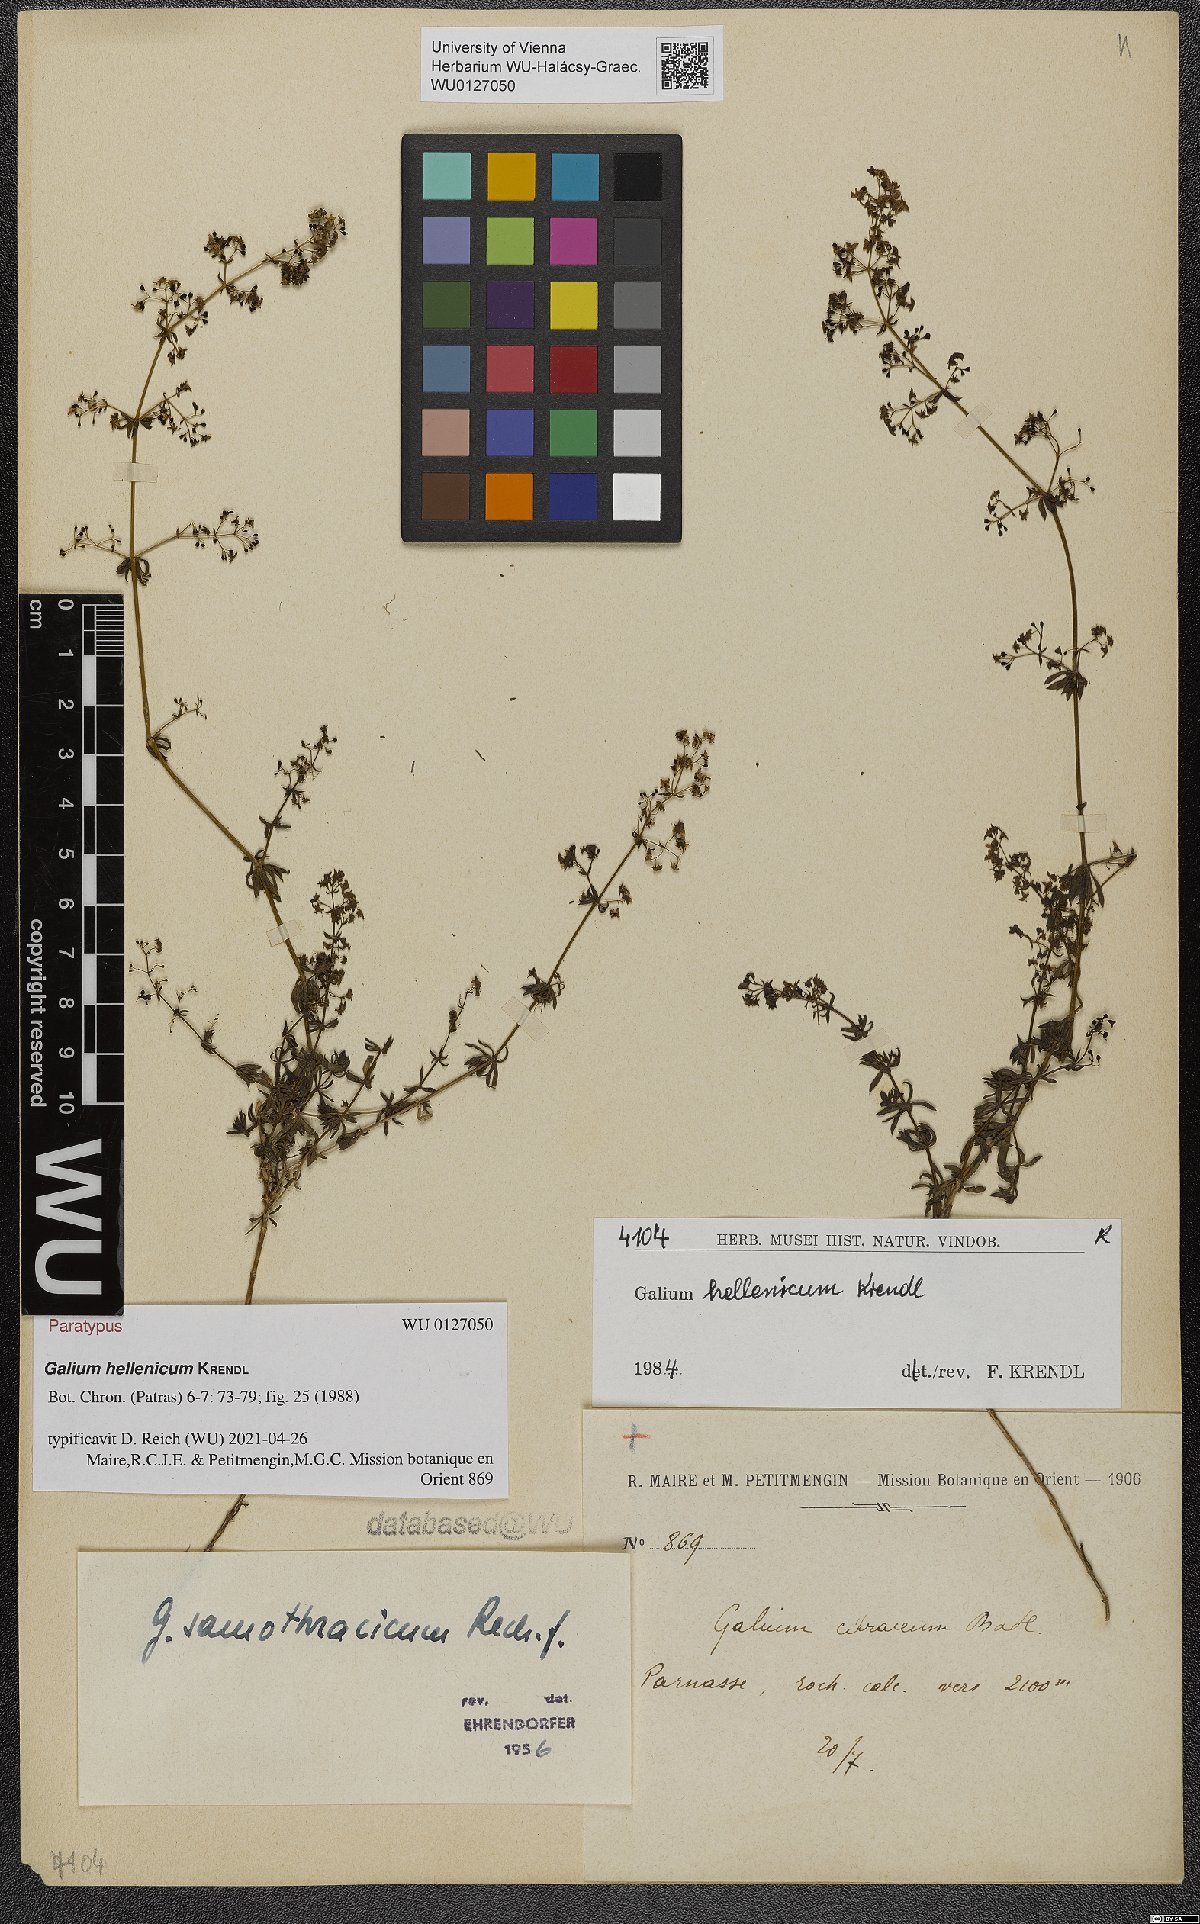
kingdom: Plantae
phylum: Tracheophyta
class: Magnoliopsida
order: Gentianales
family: Rubiaceae
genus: Galium
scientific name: Galium hellenicum
